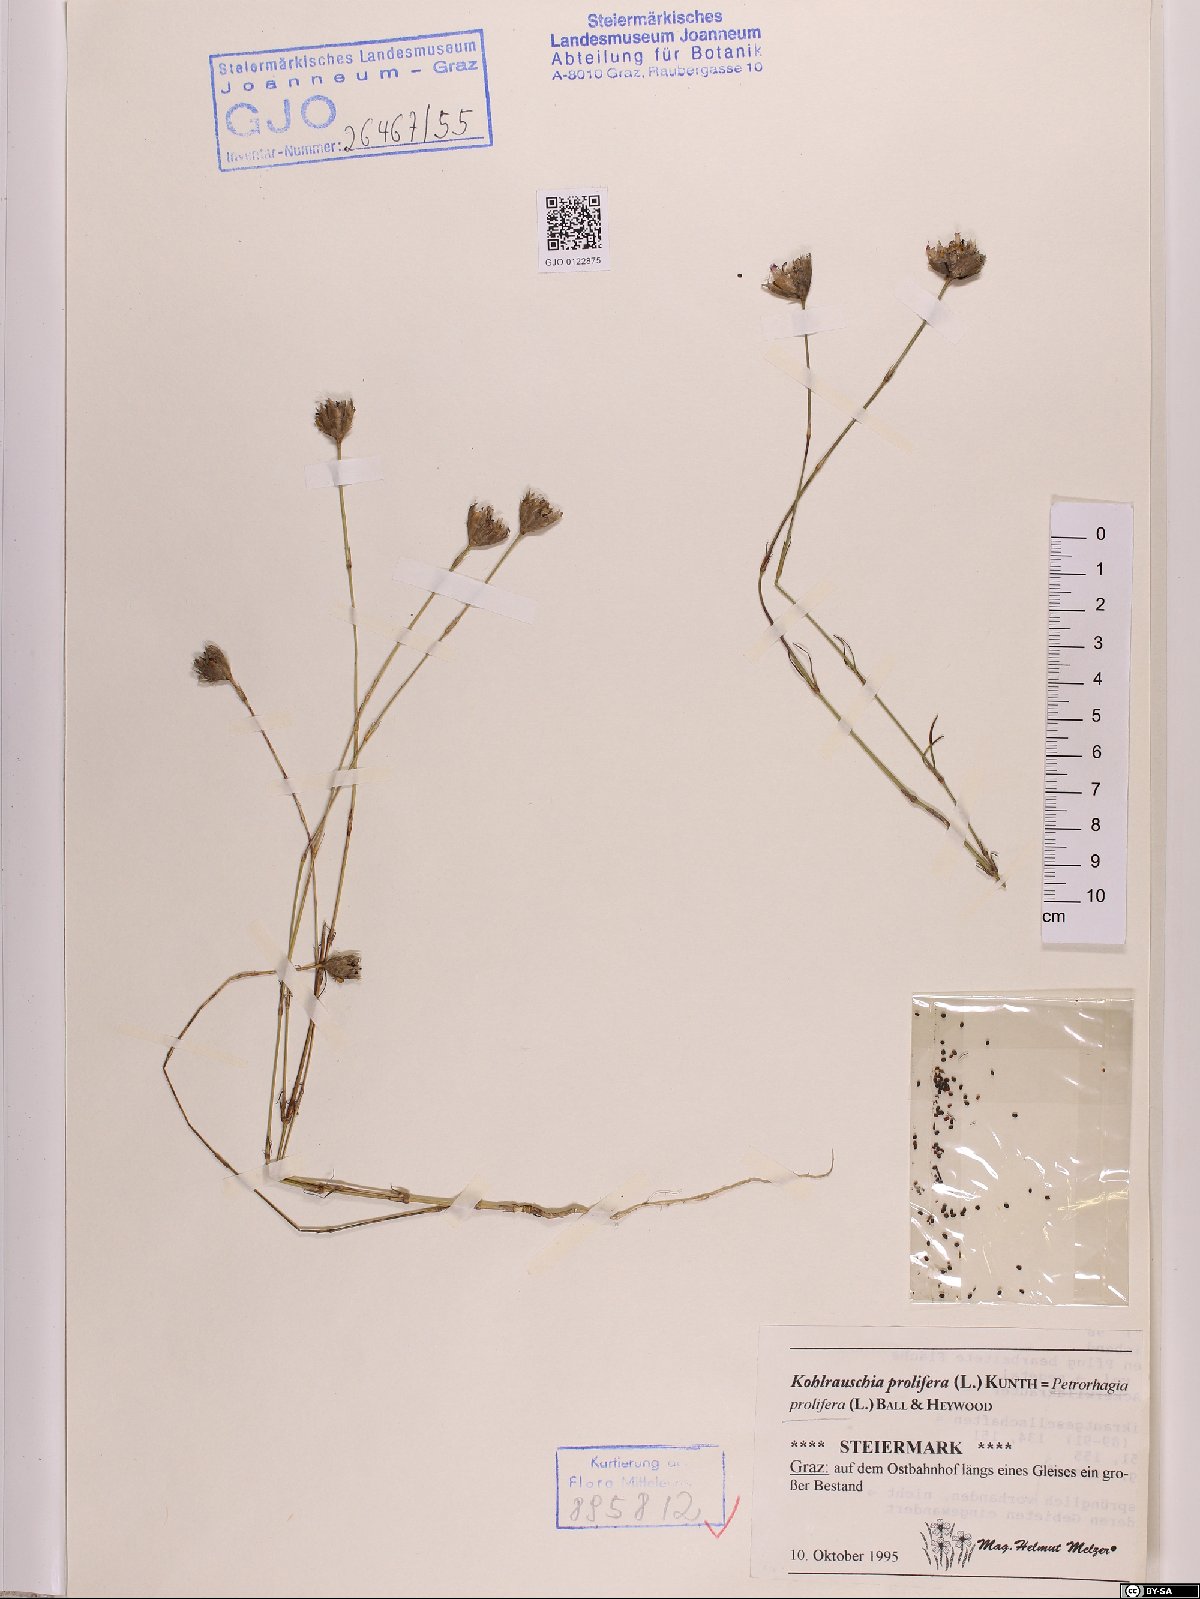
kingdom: Plantae
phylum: Tracheophyta
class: Magnoliopsida
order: Caryophyllales
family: Caryophyllaceae
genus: Petrorhagia
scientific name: Petrorhagia prolifera
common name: Proliferous pink
